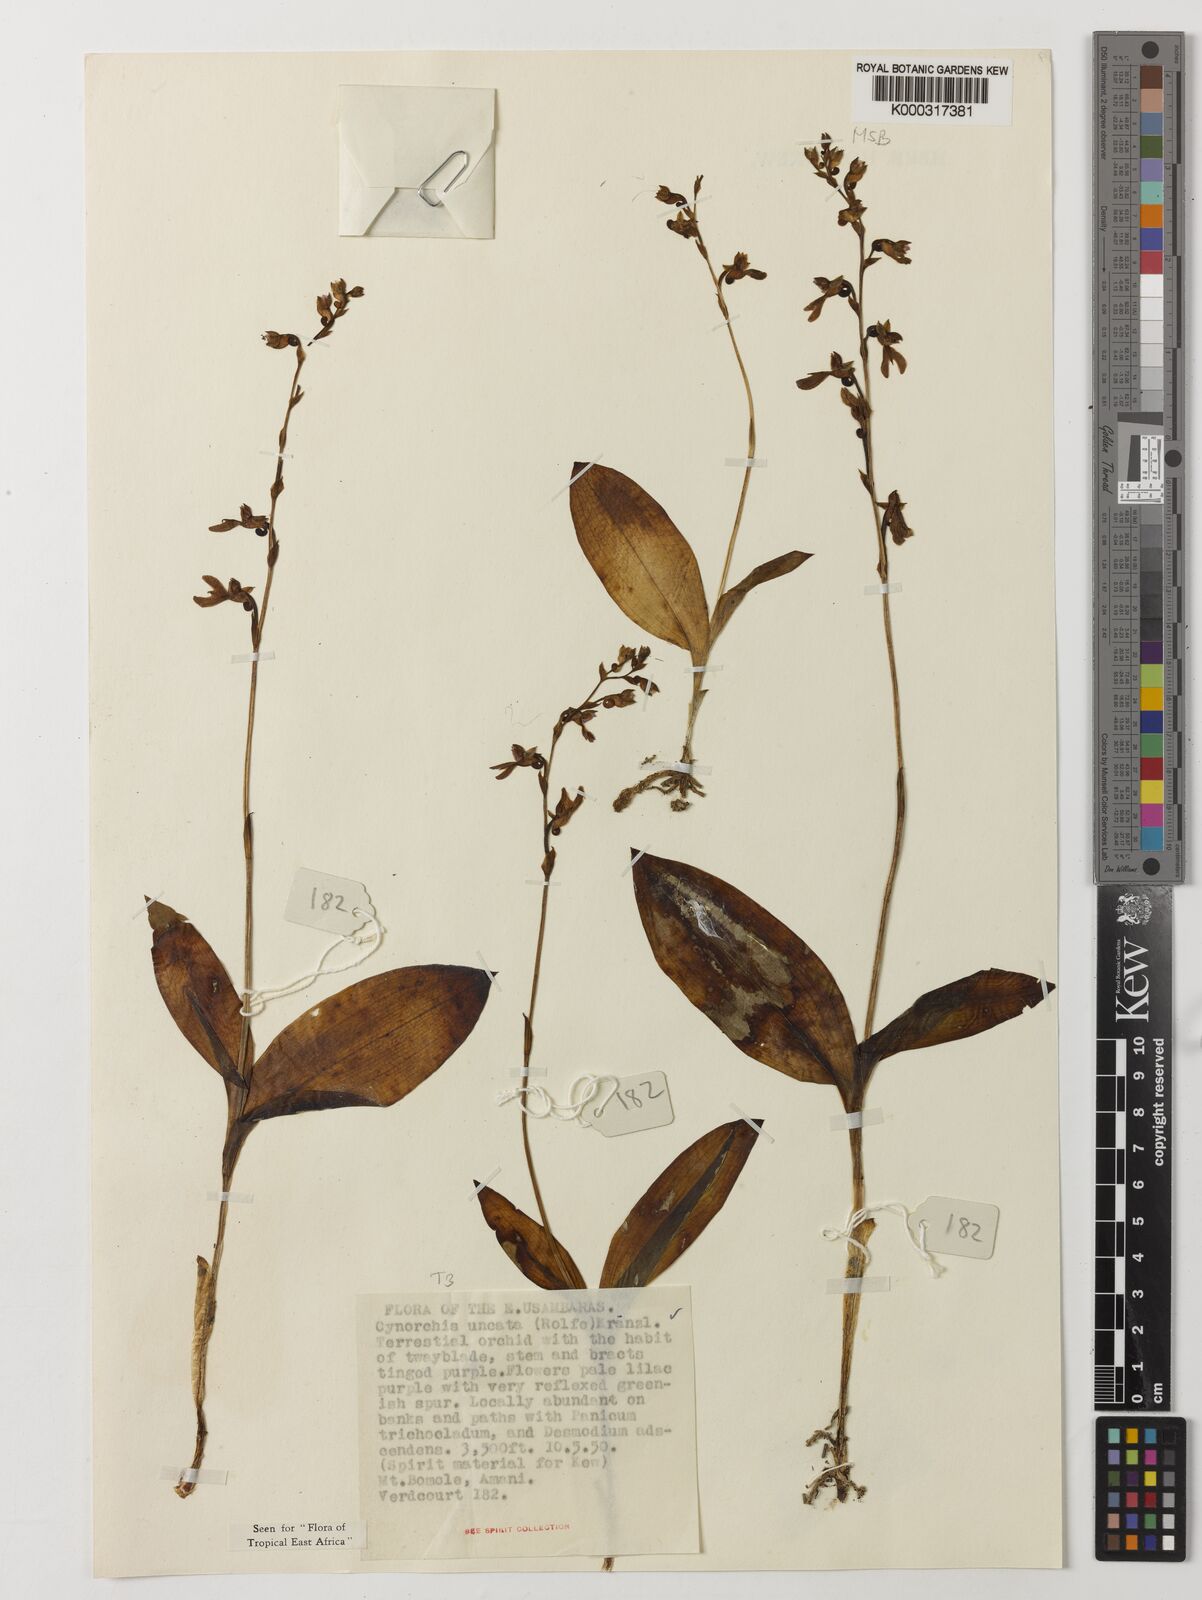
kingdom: Plantae
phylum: Tracheophyta
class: Liliopsida
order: Asparagales
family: Orchidaceae
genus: Cynorkis
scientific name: Cynorkis uncata
